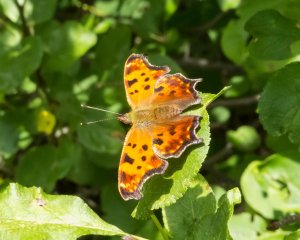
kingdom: Animalia
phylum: Arthropoda
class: Insecta
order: Lepidoptera
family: Nymphalidae
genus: Polygonia
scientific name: Polygonia comma
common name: Eastern Comma
